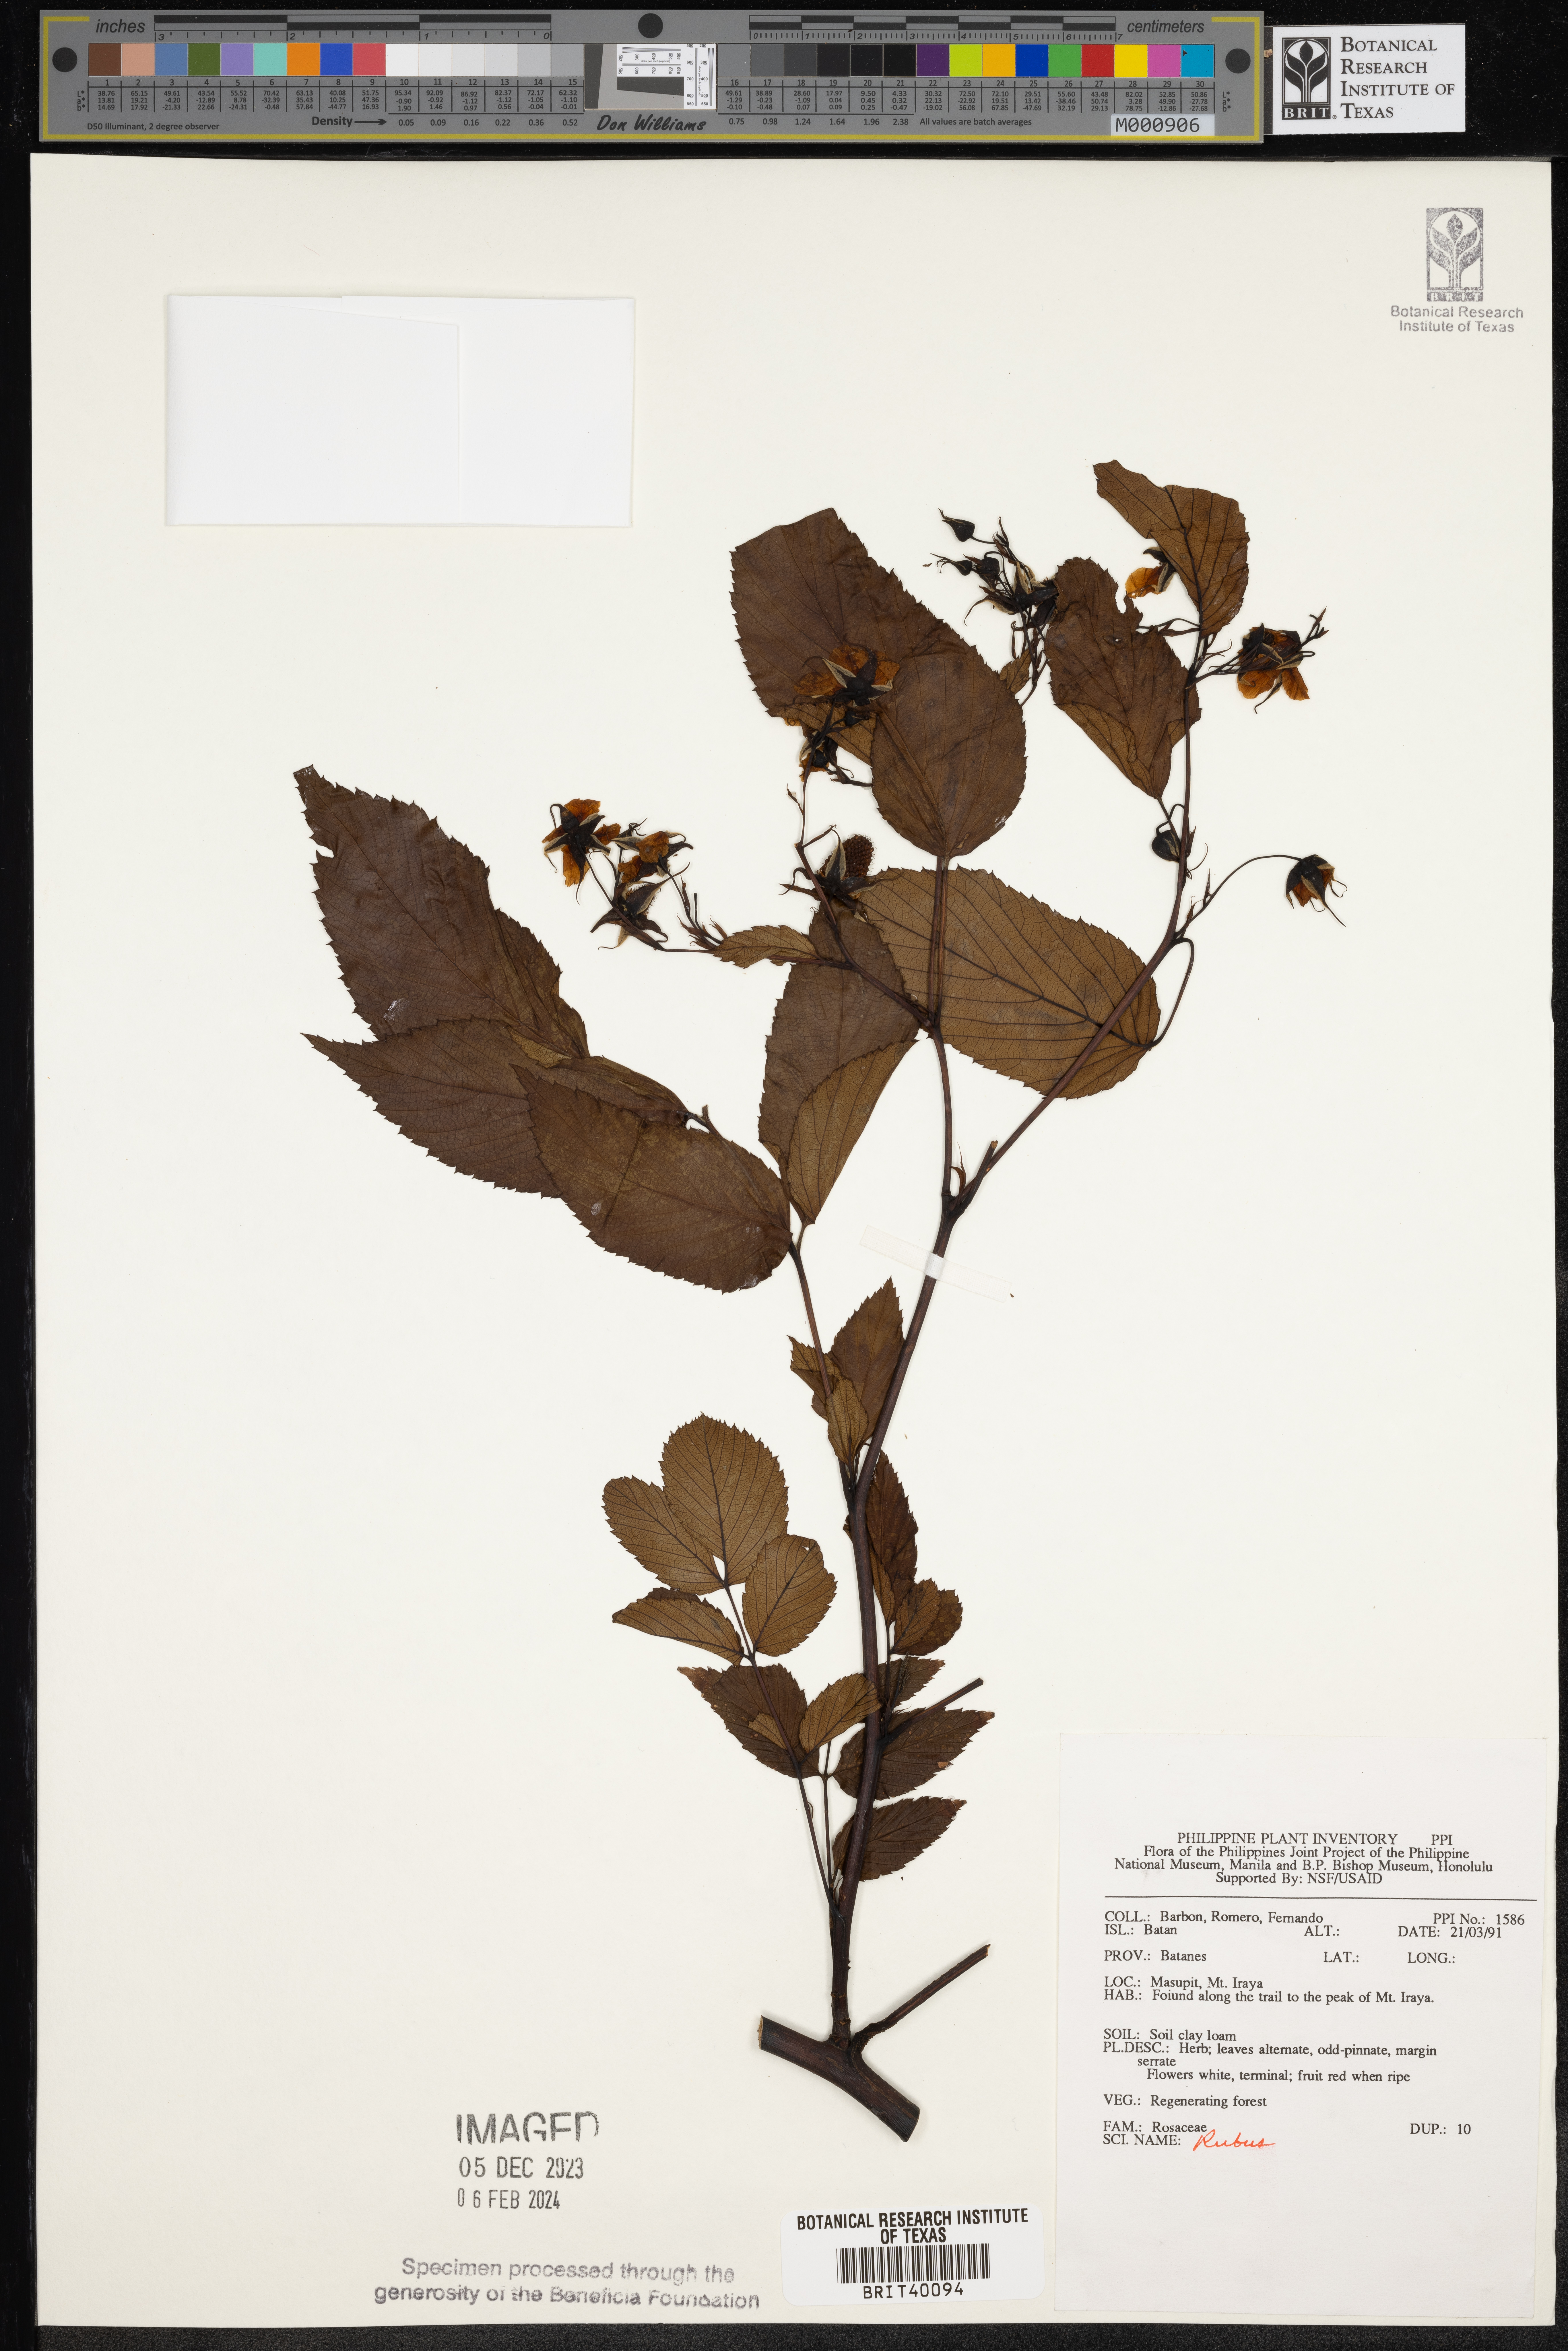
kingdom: Plantae
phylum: Tracheophyta
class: Magnoliopsida
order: Rosales
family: Rosaceae
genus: Rubus
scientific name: Rubus
